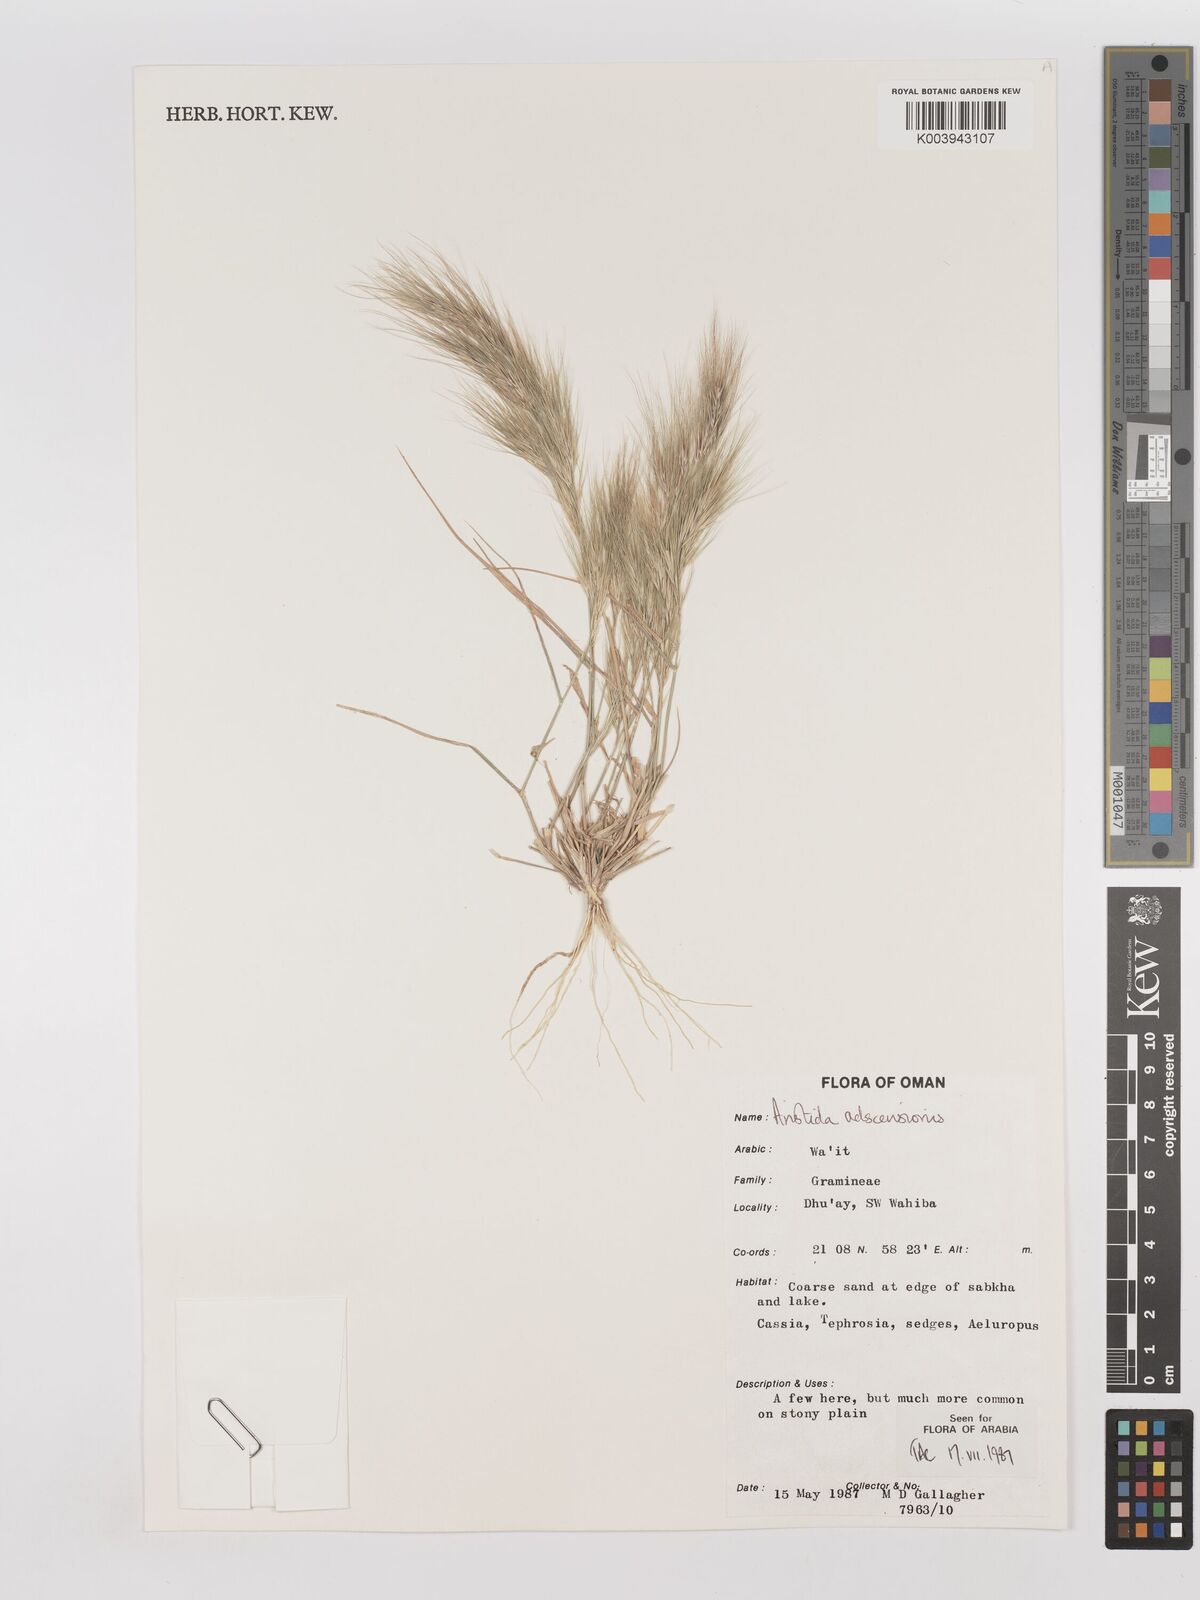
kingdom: Plantae
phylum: Tracheophyta
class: Liliopsida
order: Poales
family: Poaceae
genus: Aristida
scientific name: Aristida adscensionis
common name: Sixweeks threeawn
